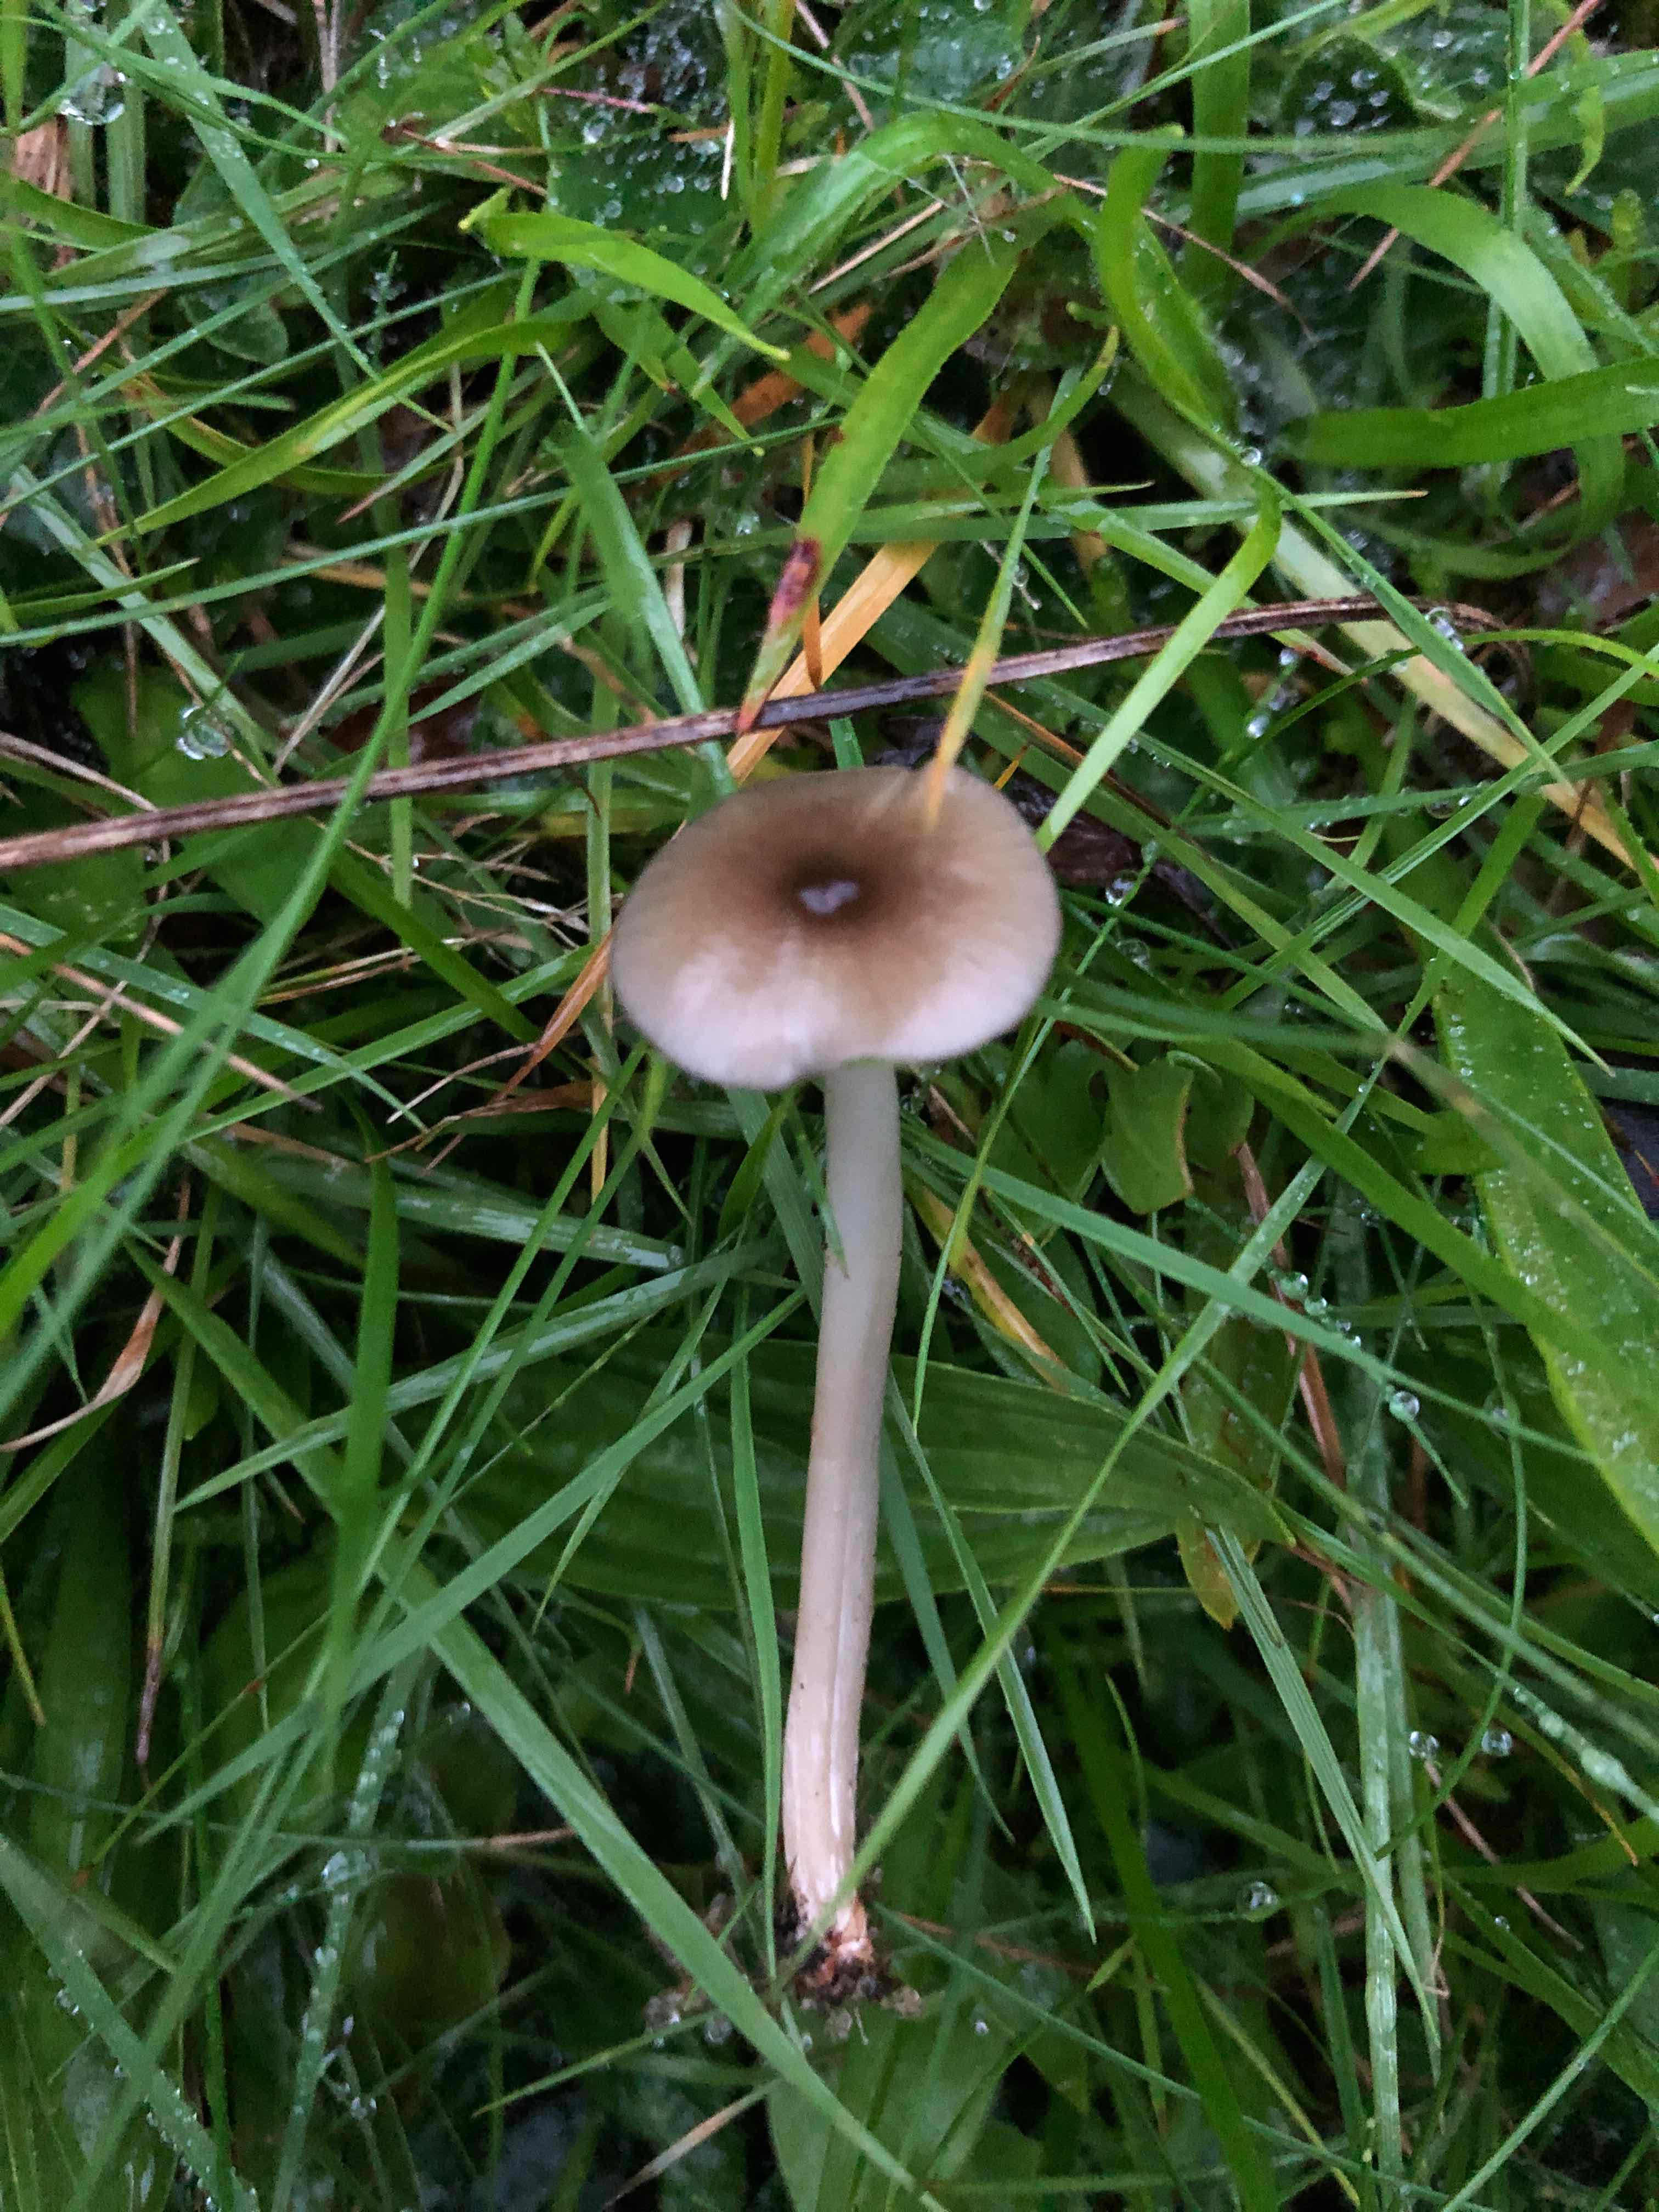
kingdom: Fungi
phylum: Basidiomycota
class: Agaricomycetes
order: Agaricales
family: Entolomataceae
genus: Entoloma
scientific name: Entoloma exile
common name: rødplettet rødblad
